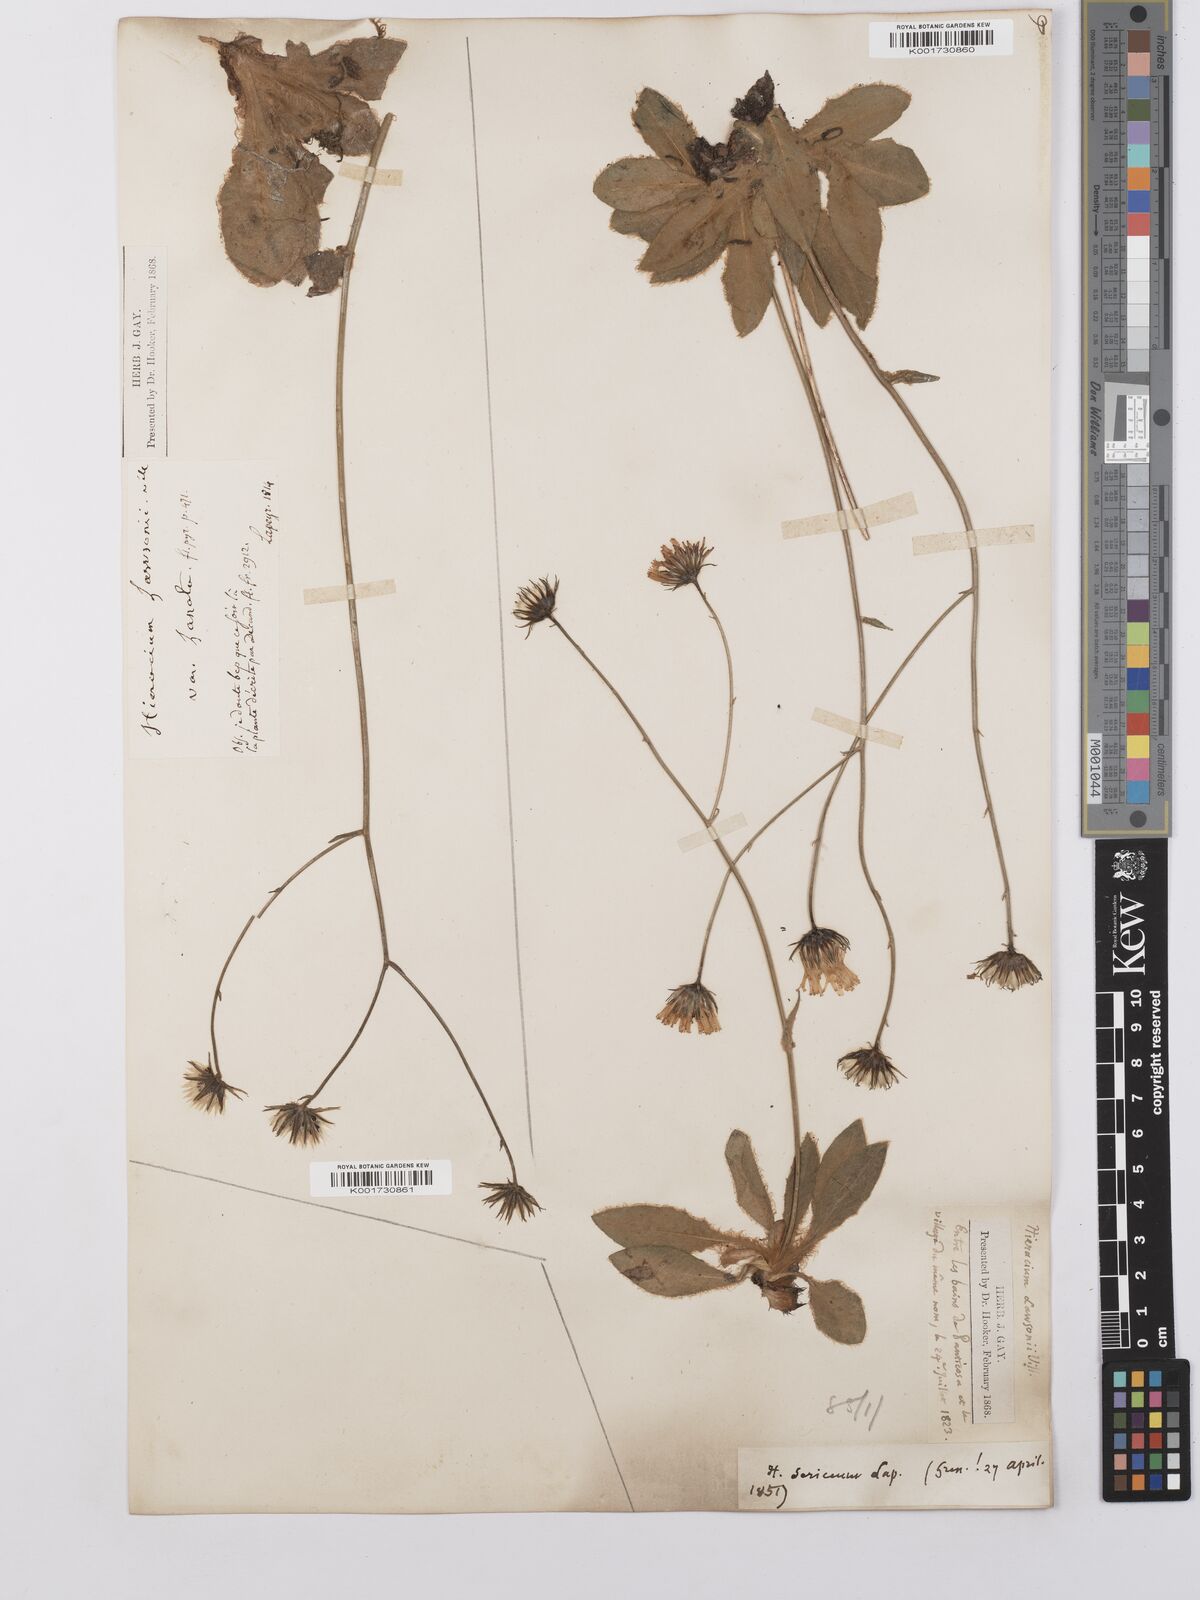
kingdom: Plantae
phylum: Tracheophyta
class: Magnoliopsida
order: Asterales
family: Asteraceae
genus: Hieracium
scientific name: Hieracium
